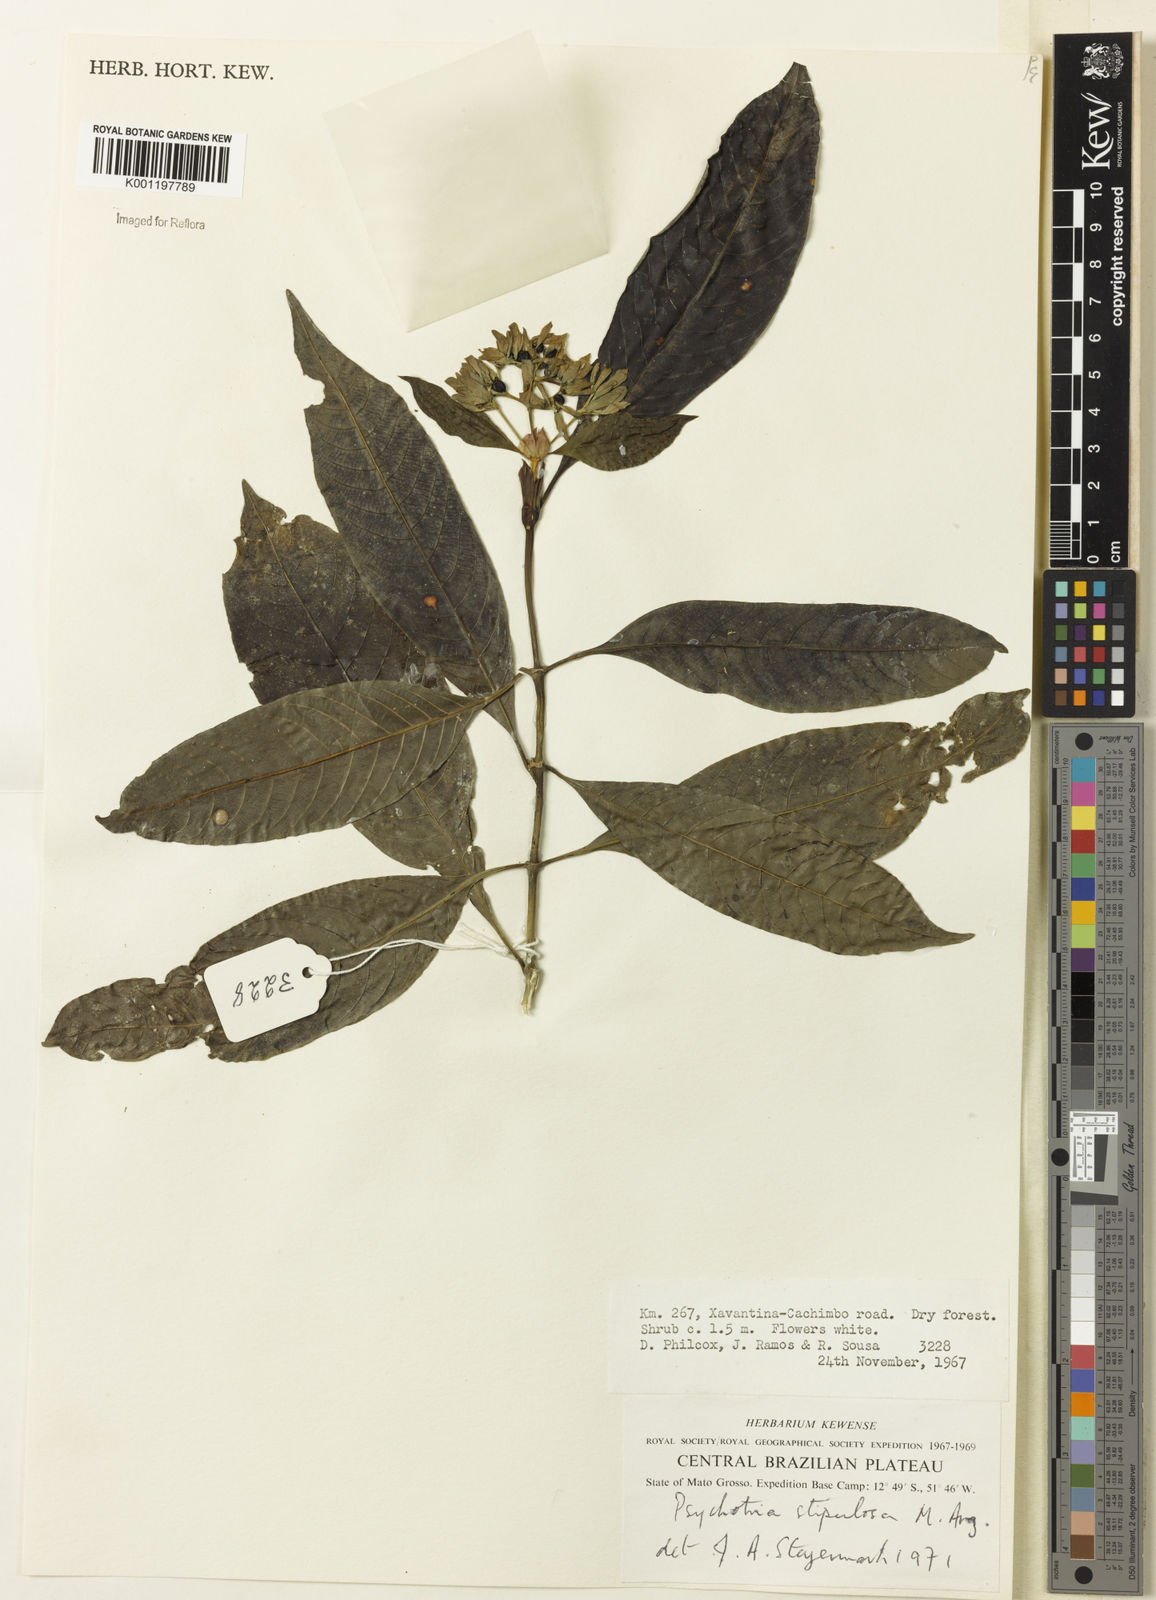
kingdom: Plantae
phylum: Tracheophyta
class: Magnoliopsida
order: Gentianales
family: Rubiaceae
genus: Psychotria
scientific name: Psychotria
